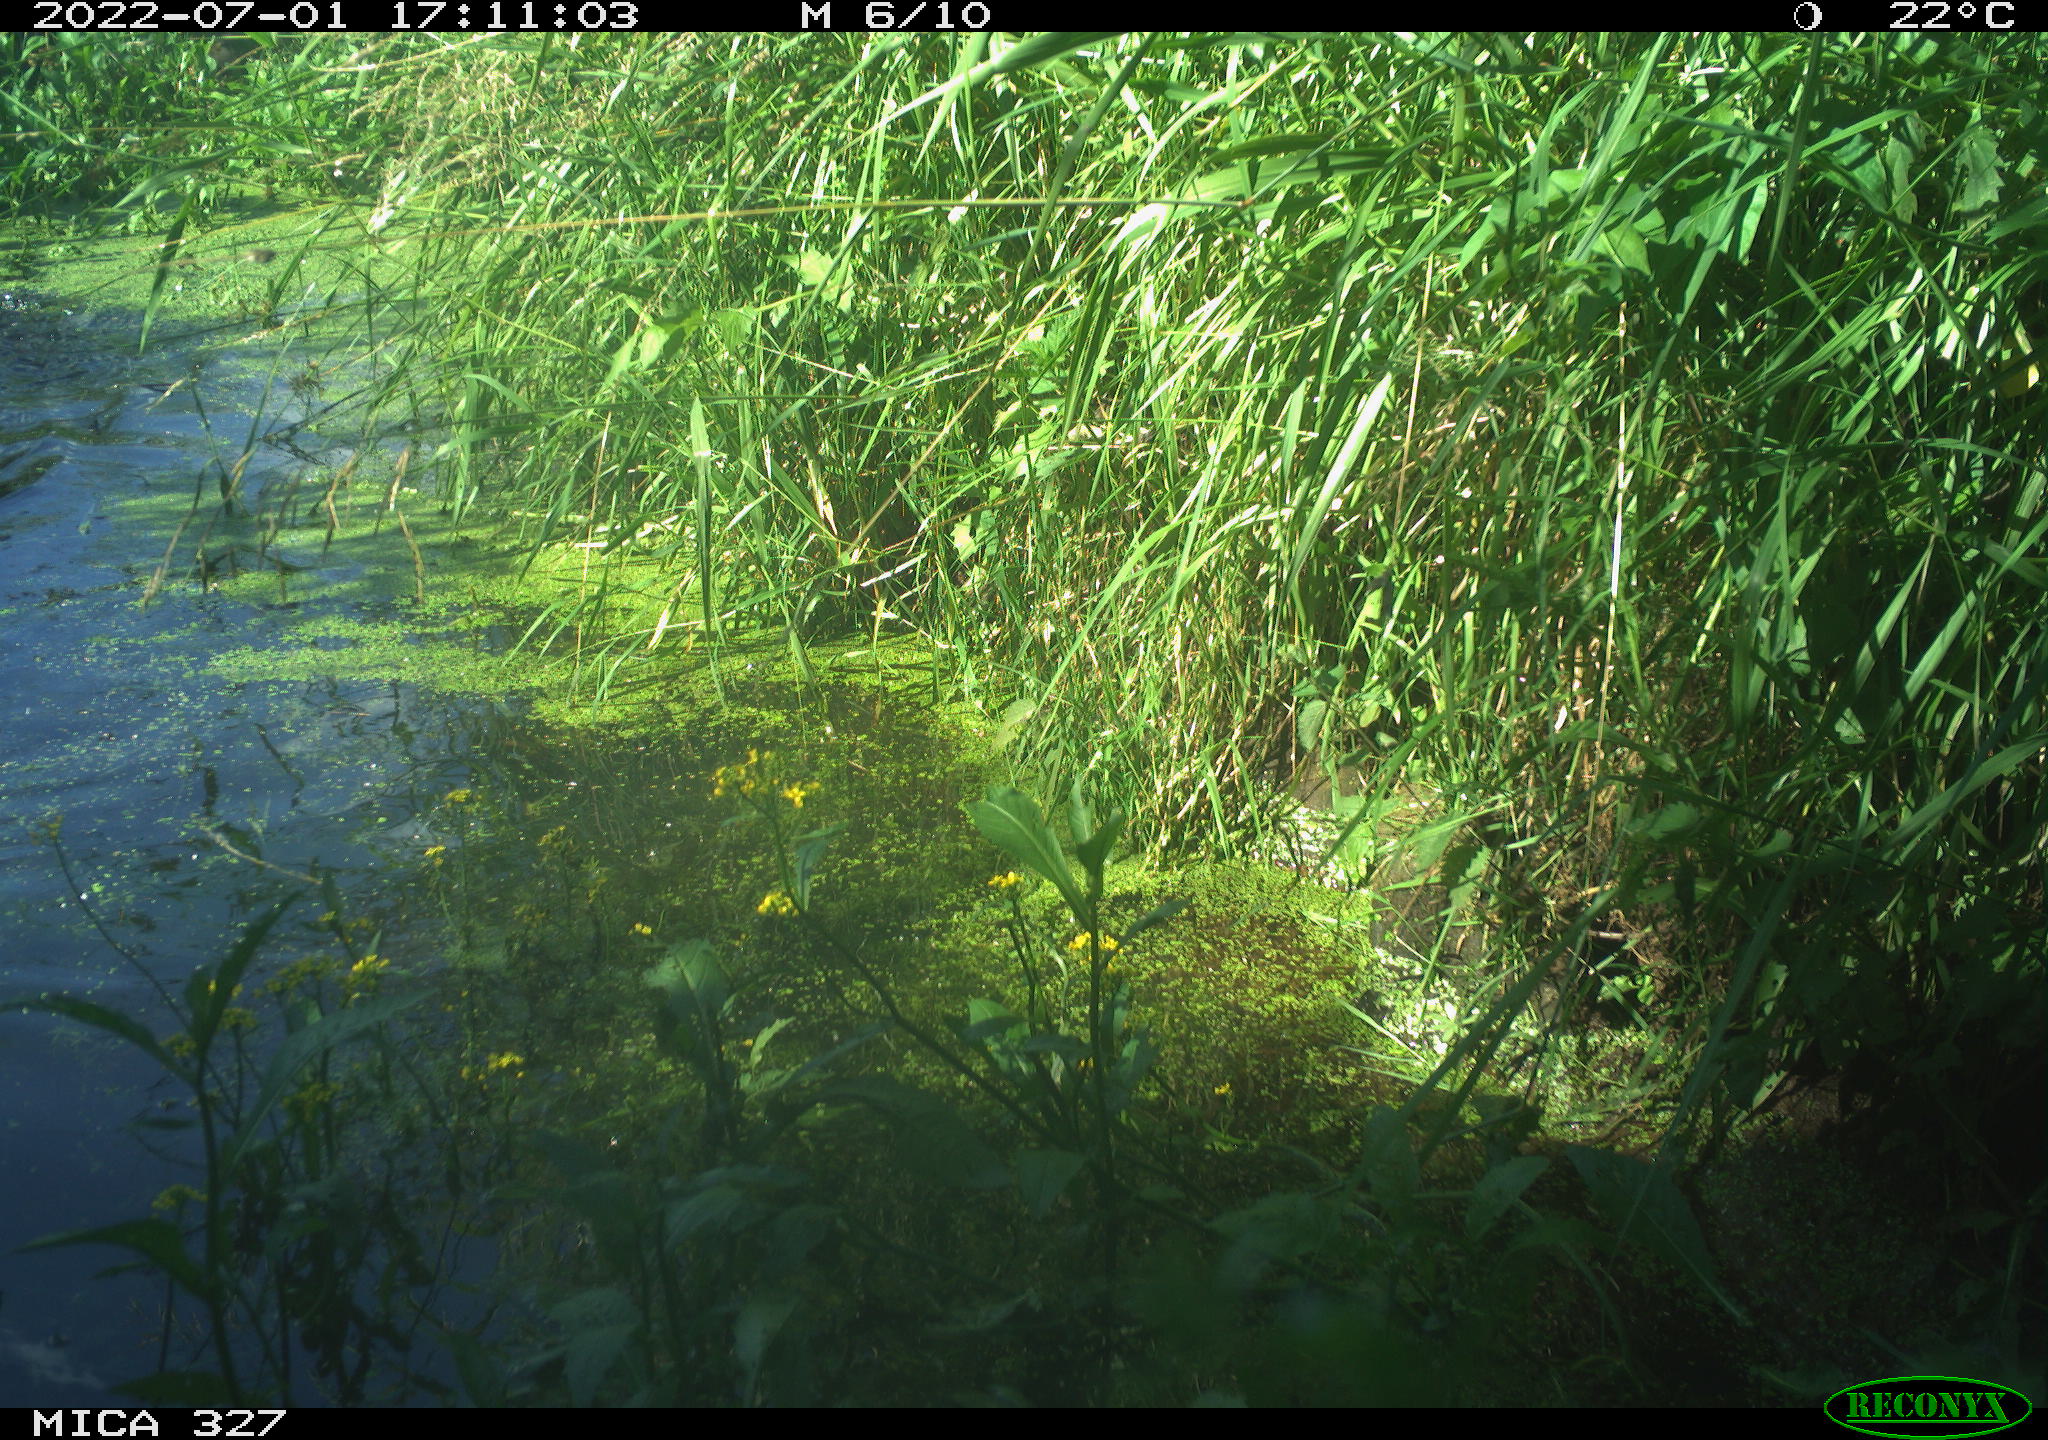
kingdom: Animalia
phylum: Chordata
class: Aves
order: Gruiformes
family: Rallidae
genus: Gallinula
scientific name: Gallinula chloropus
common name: Common moorhen
